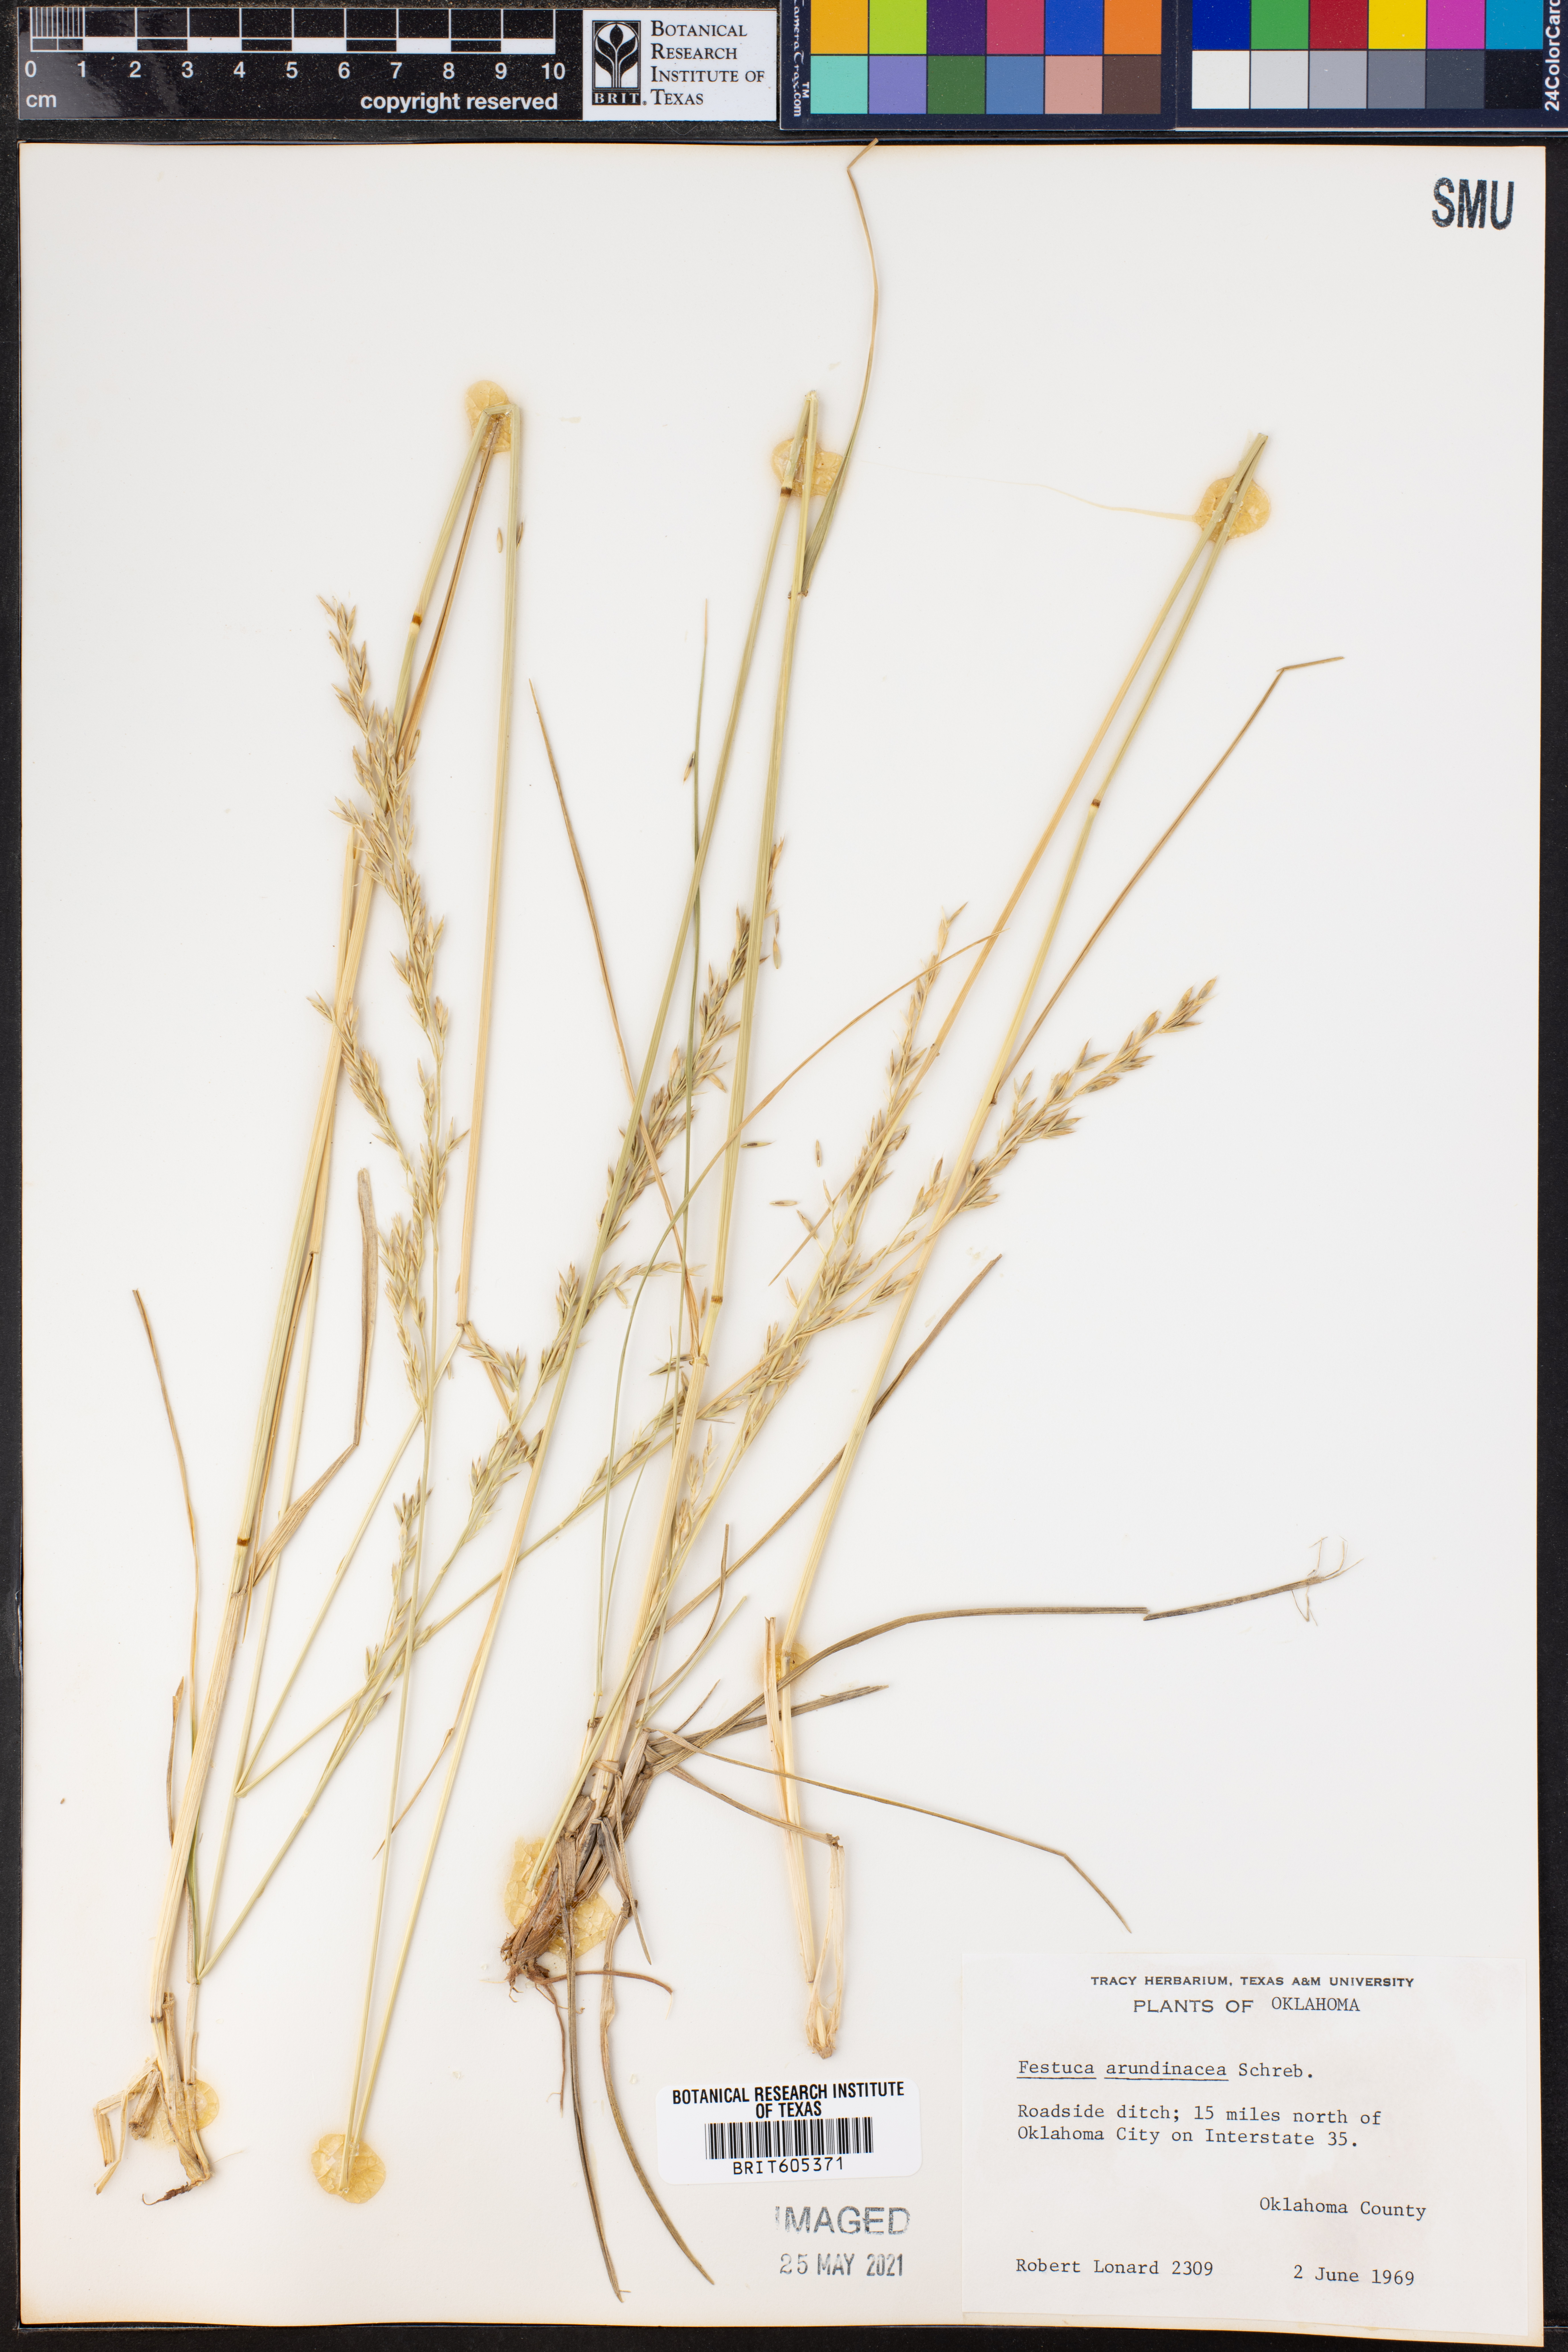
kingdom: Plantae
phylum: Tracheophyta
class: Liliopsida
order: Poales
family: Poaceae
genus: Lolium
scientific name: Lolium arundinaceum
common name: Reed fescue
